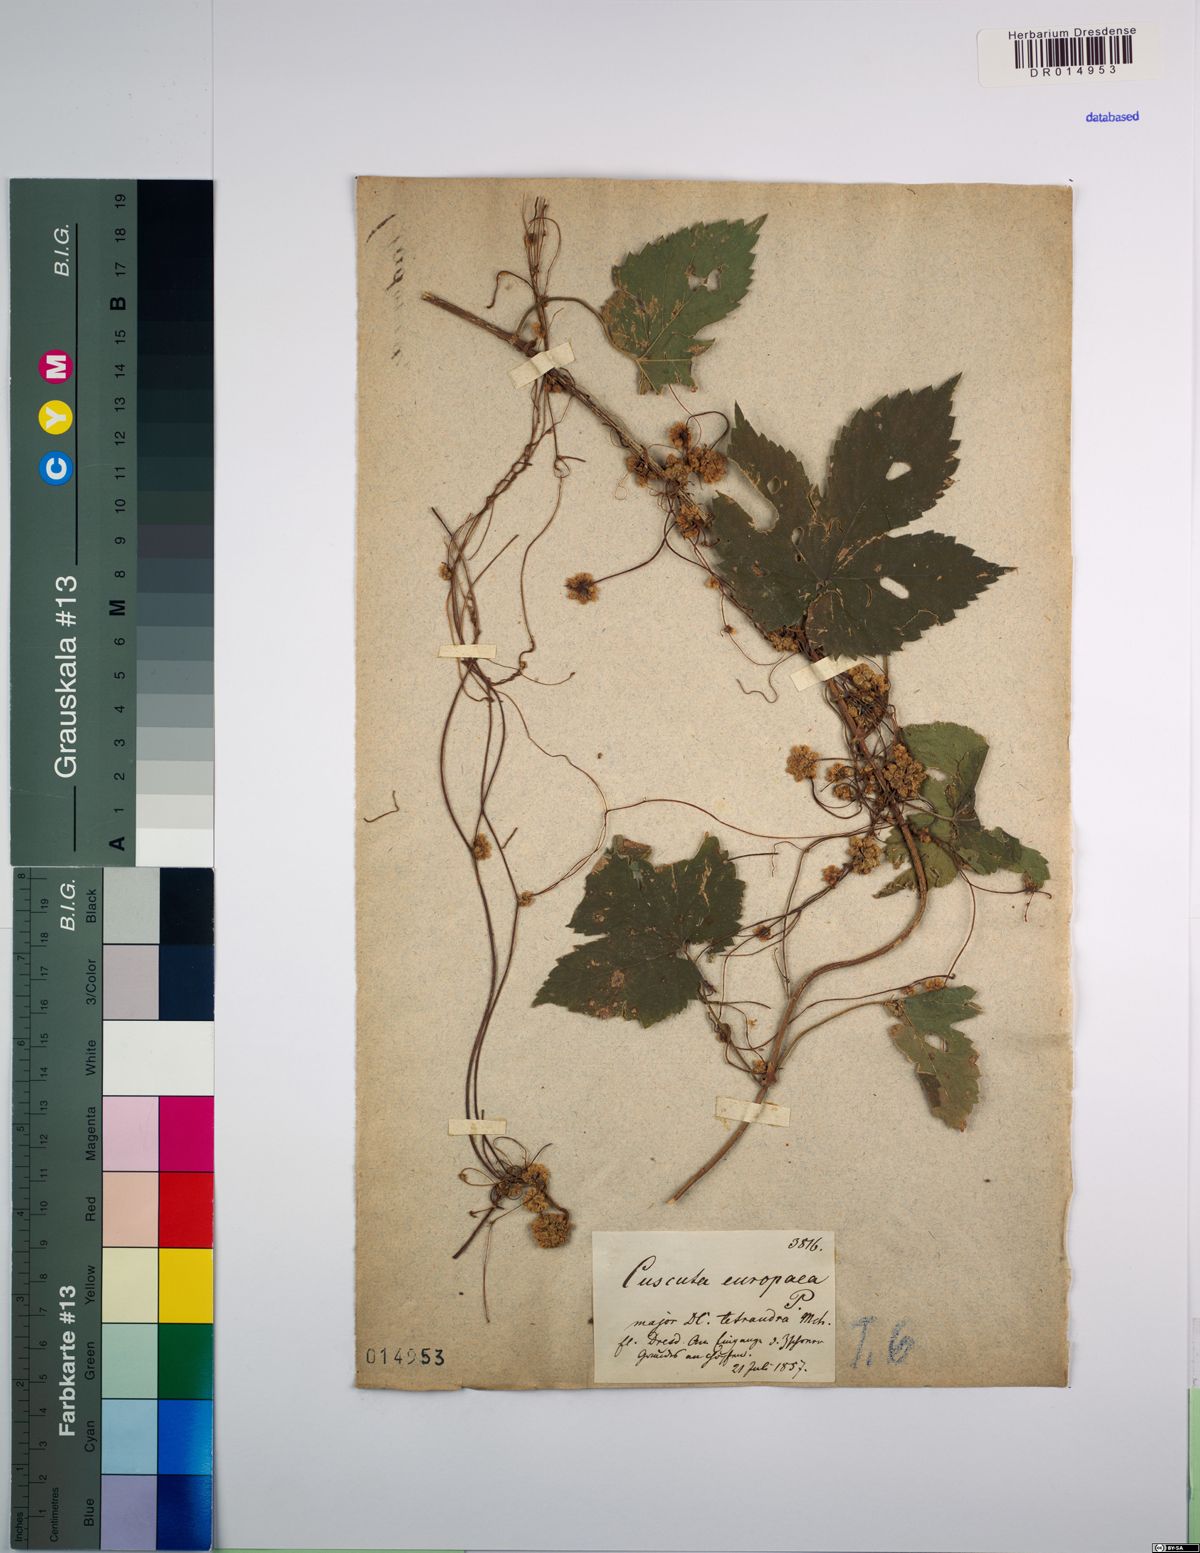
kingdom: Plantae
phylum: Tracheophyta
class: Magnoliopsida
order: Solanales
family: Convolvulaceae
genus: Cuscuta
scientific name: Cuscuta europaea
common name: Greater dodder
